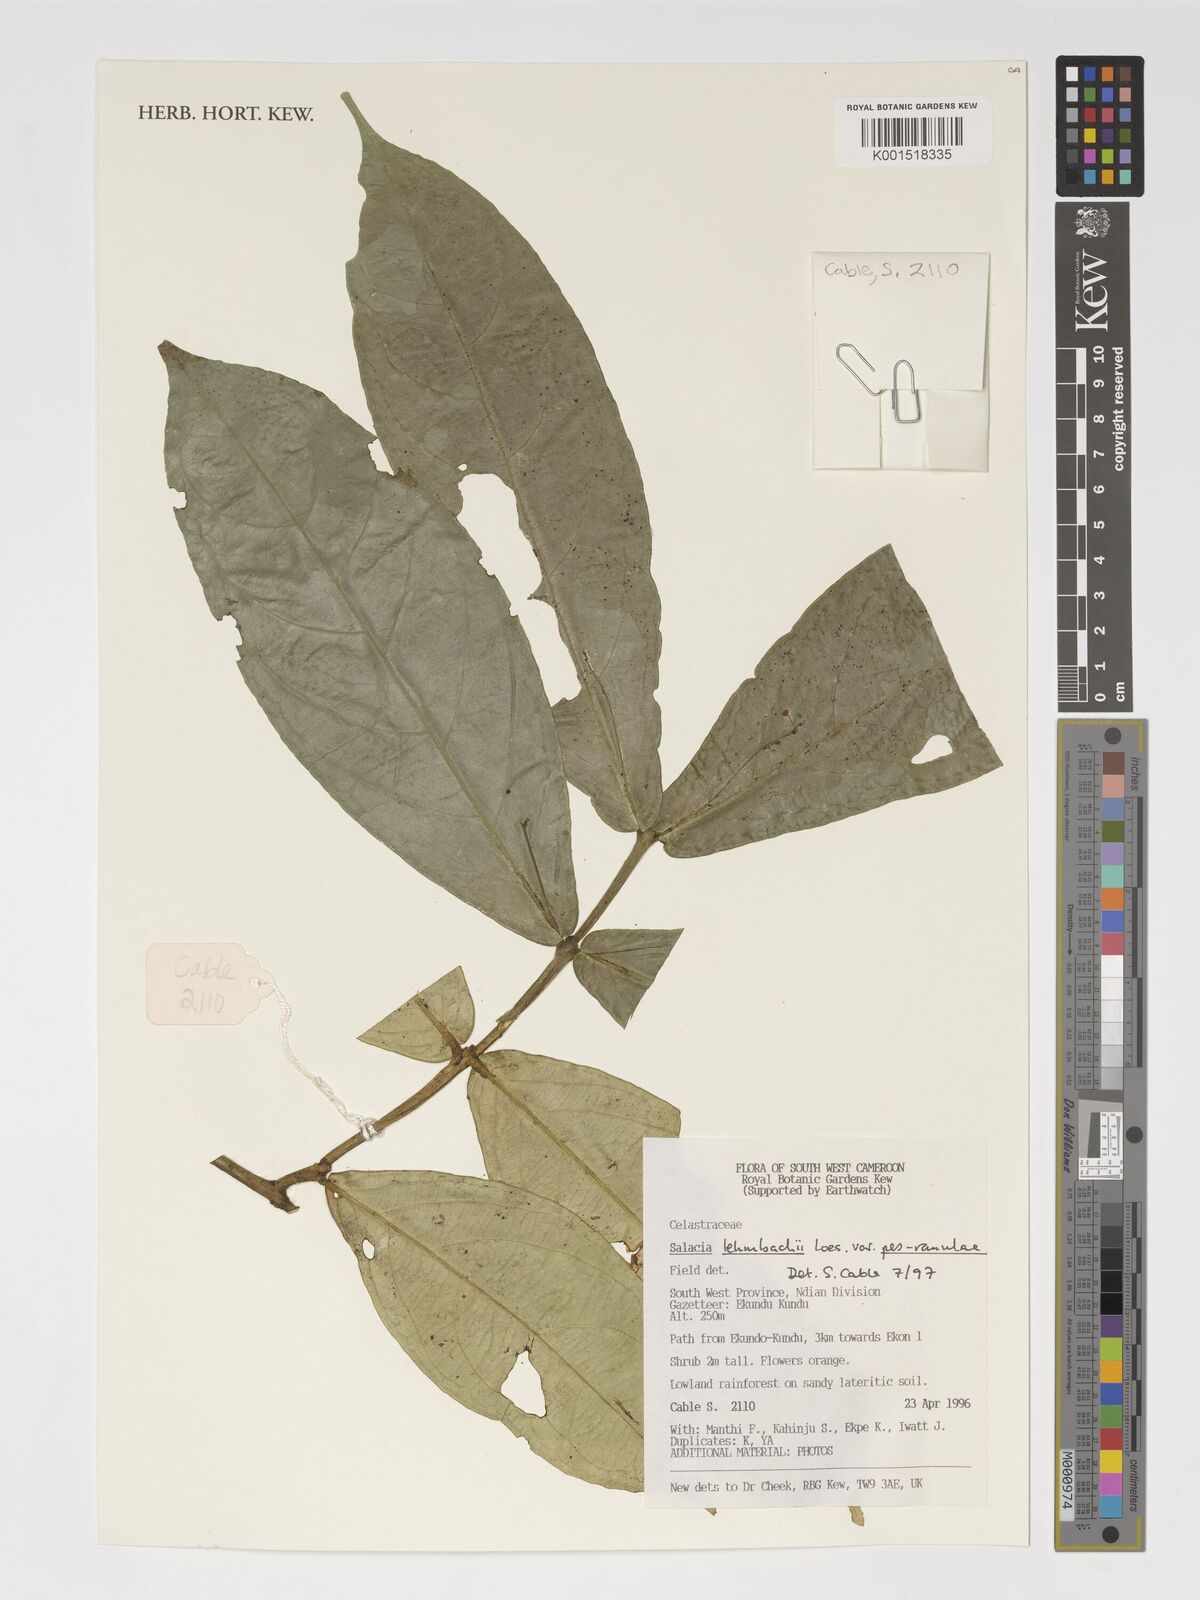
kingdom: Plantae
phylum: Tracheophyta
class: Magnoliopsida
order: Celastrales
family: Celastraceae
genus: Salacia
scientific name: Salacia lehmbachii
